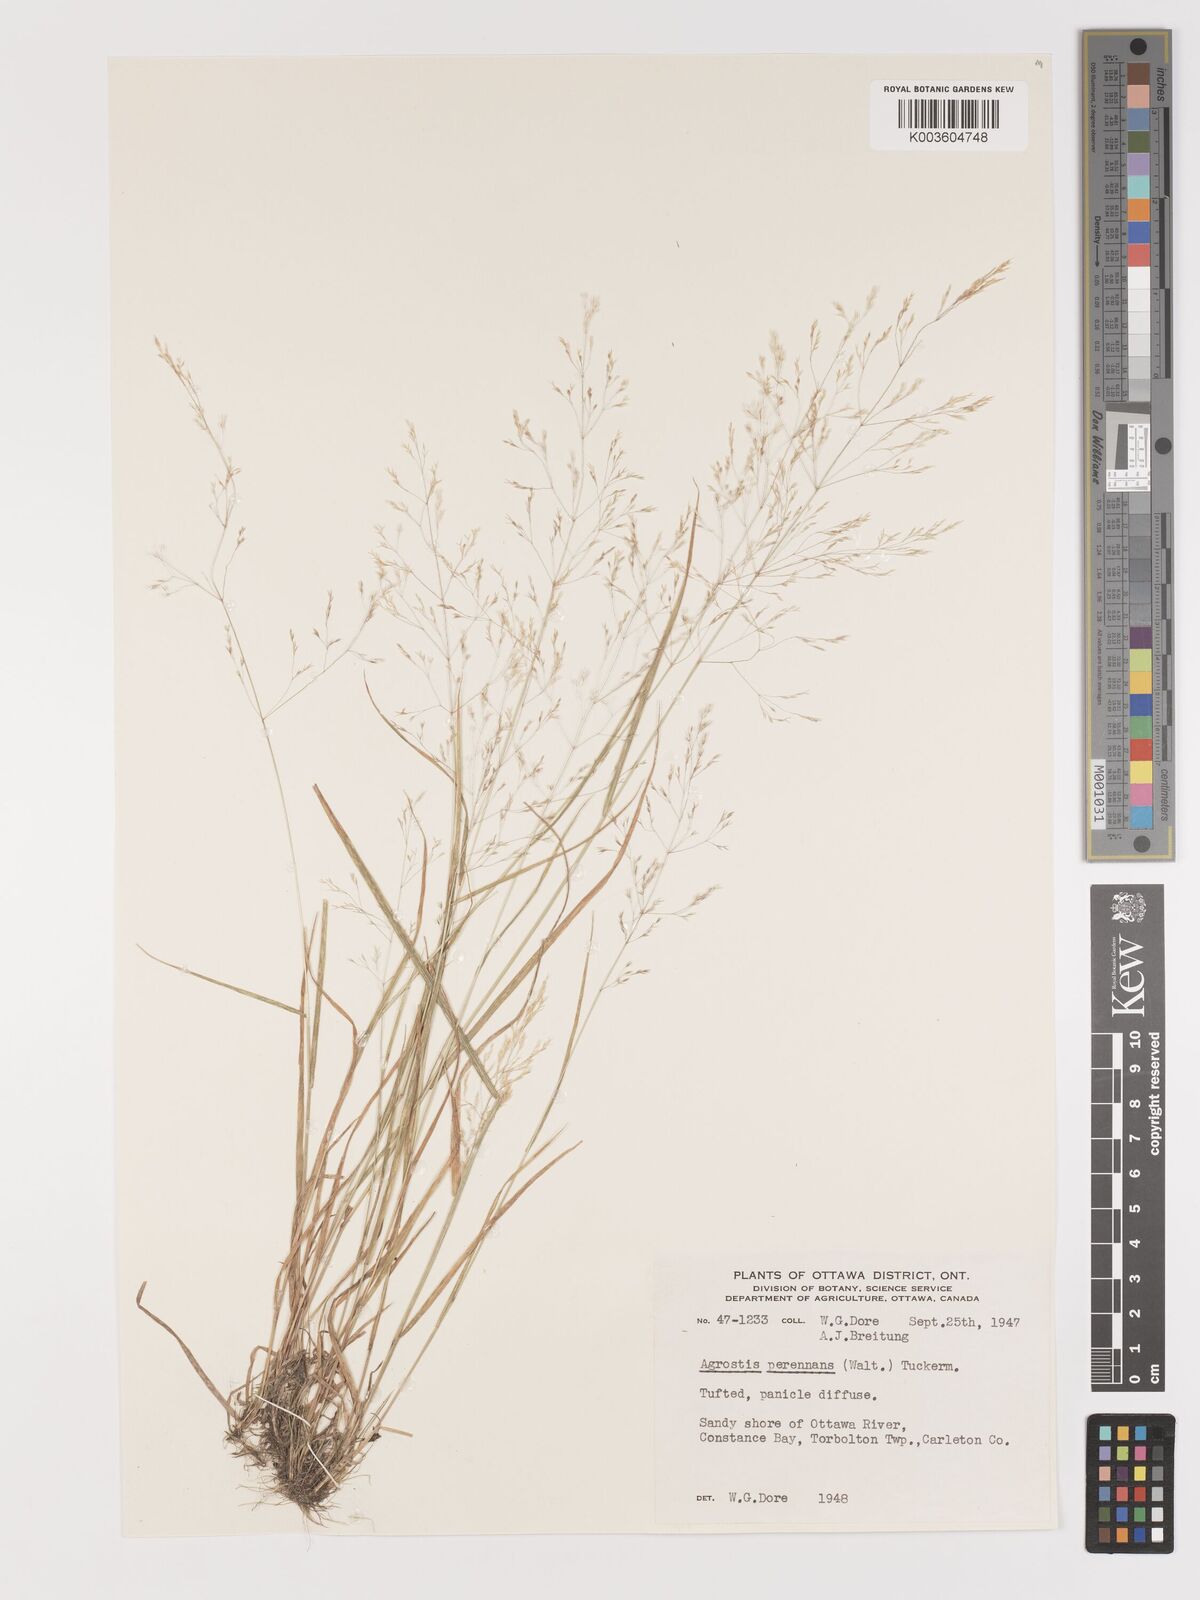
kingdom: Plantae
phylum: Tracheophyta
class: Liliopsida
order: Poales
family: Poaceae
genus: Agrostis
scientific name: Agrostis perennans
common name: Autumn bent
